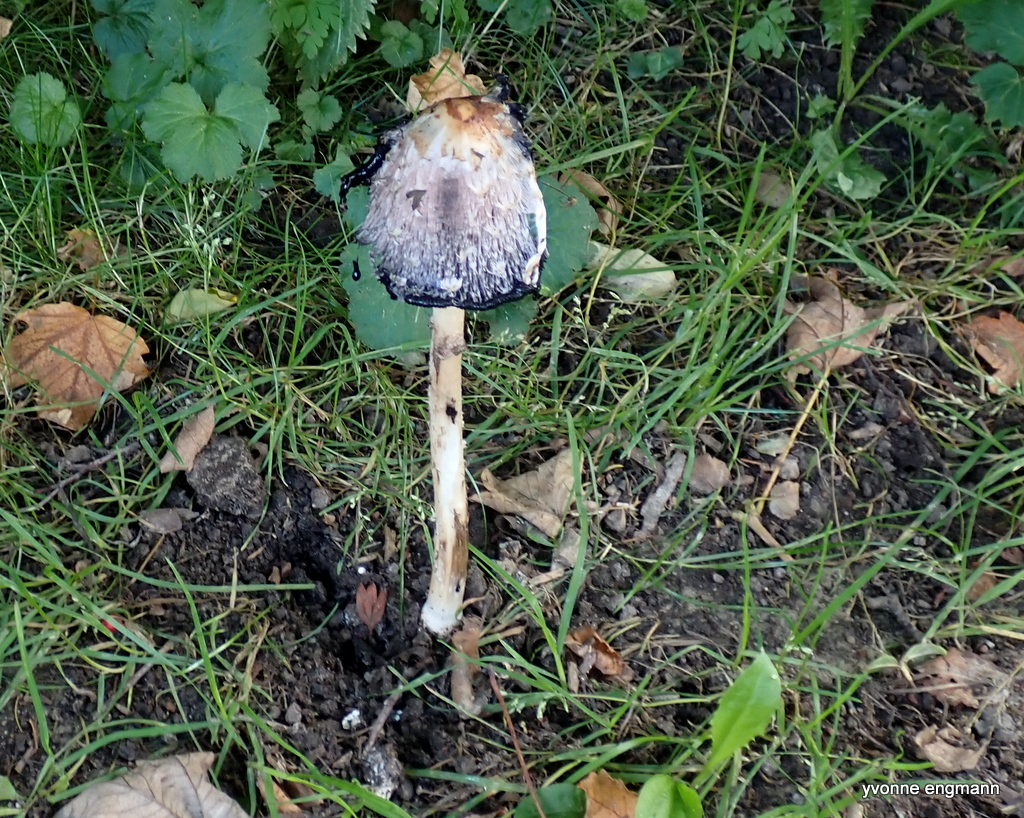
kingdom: Fungi
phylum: Basidiomycota
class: Agaricomycetes
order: Agaricales
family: Agaricaceae
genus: Coprinus
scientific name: Coprinus comatus
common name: stor parykhat
